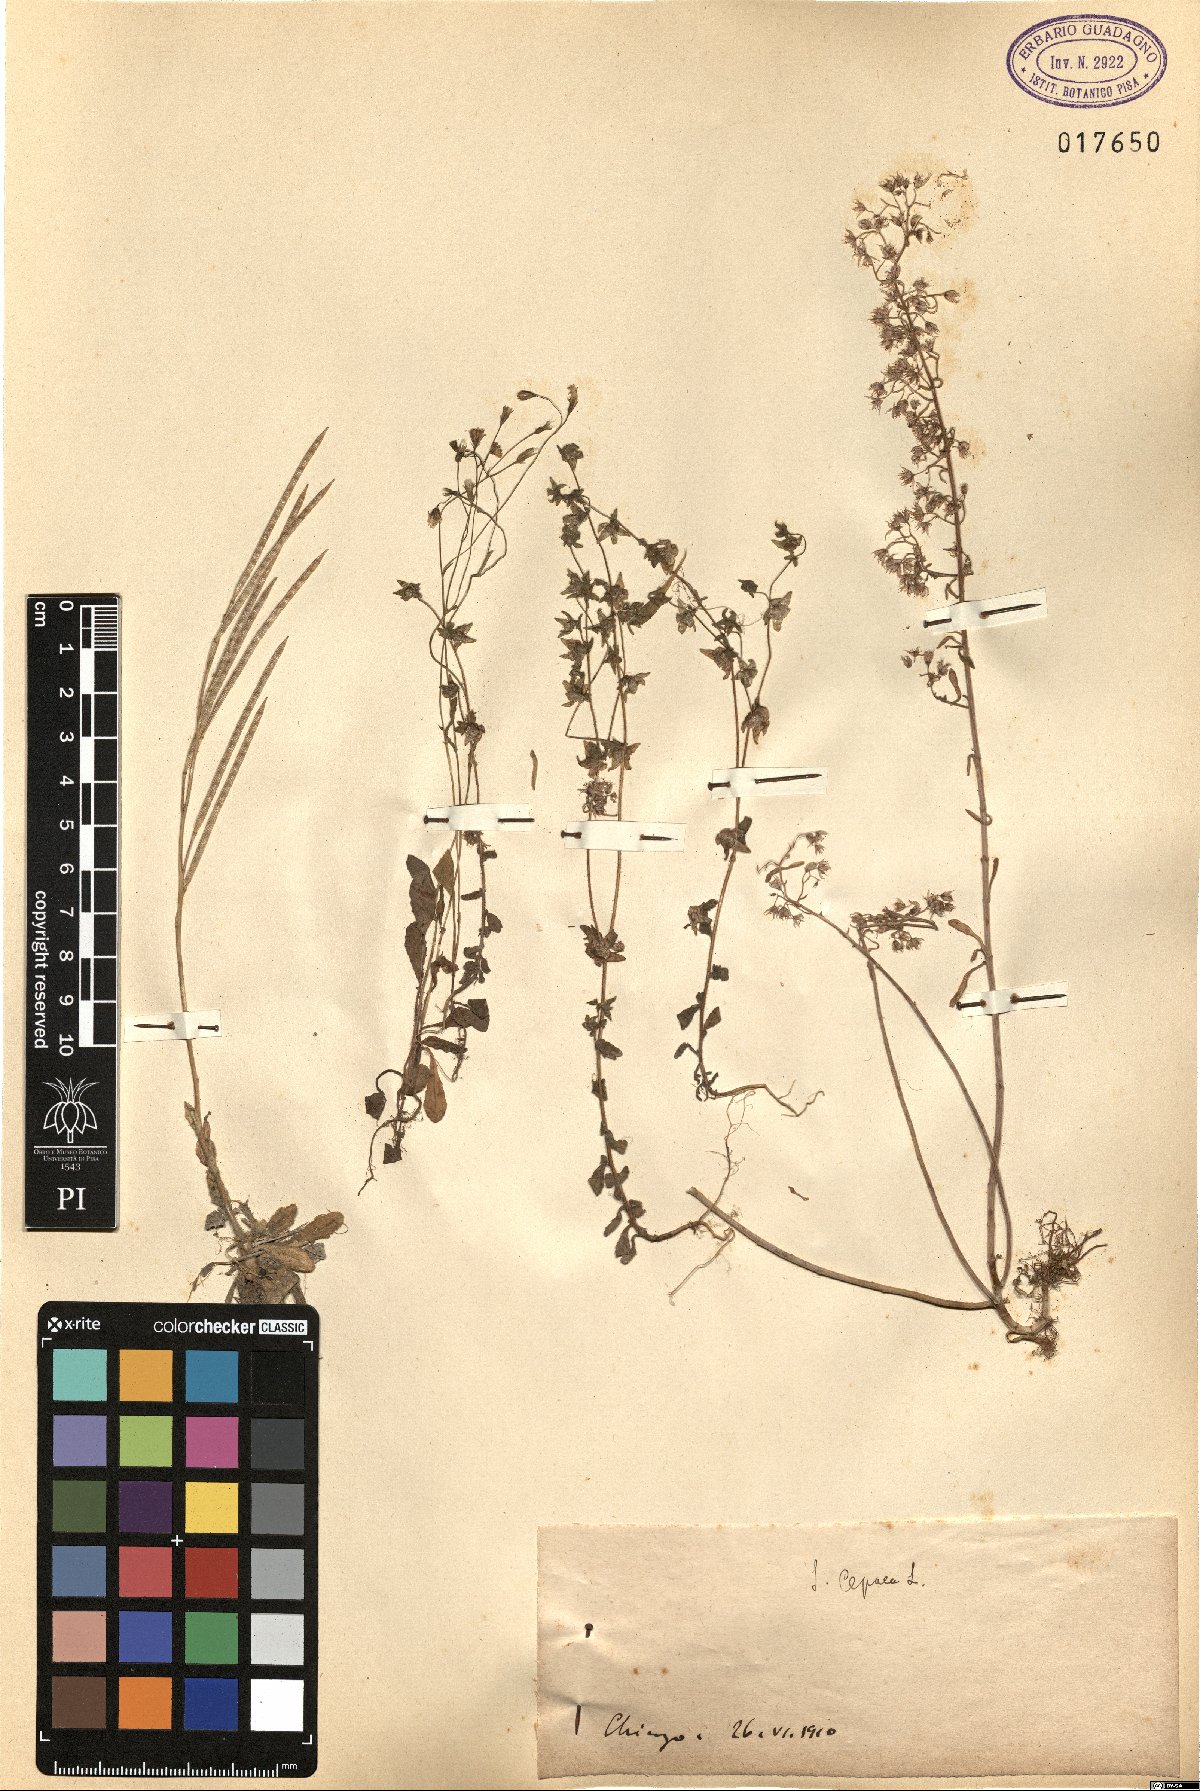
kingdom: Plantae
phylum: Tracheophyta
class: Magnoliopsida
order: Saxifragales
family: Crassulaceae
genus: Sedum
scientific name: Sedum cepaea
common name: Pink stonecrop
